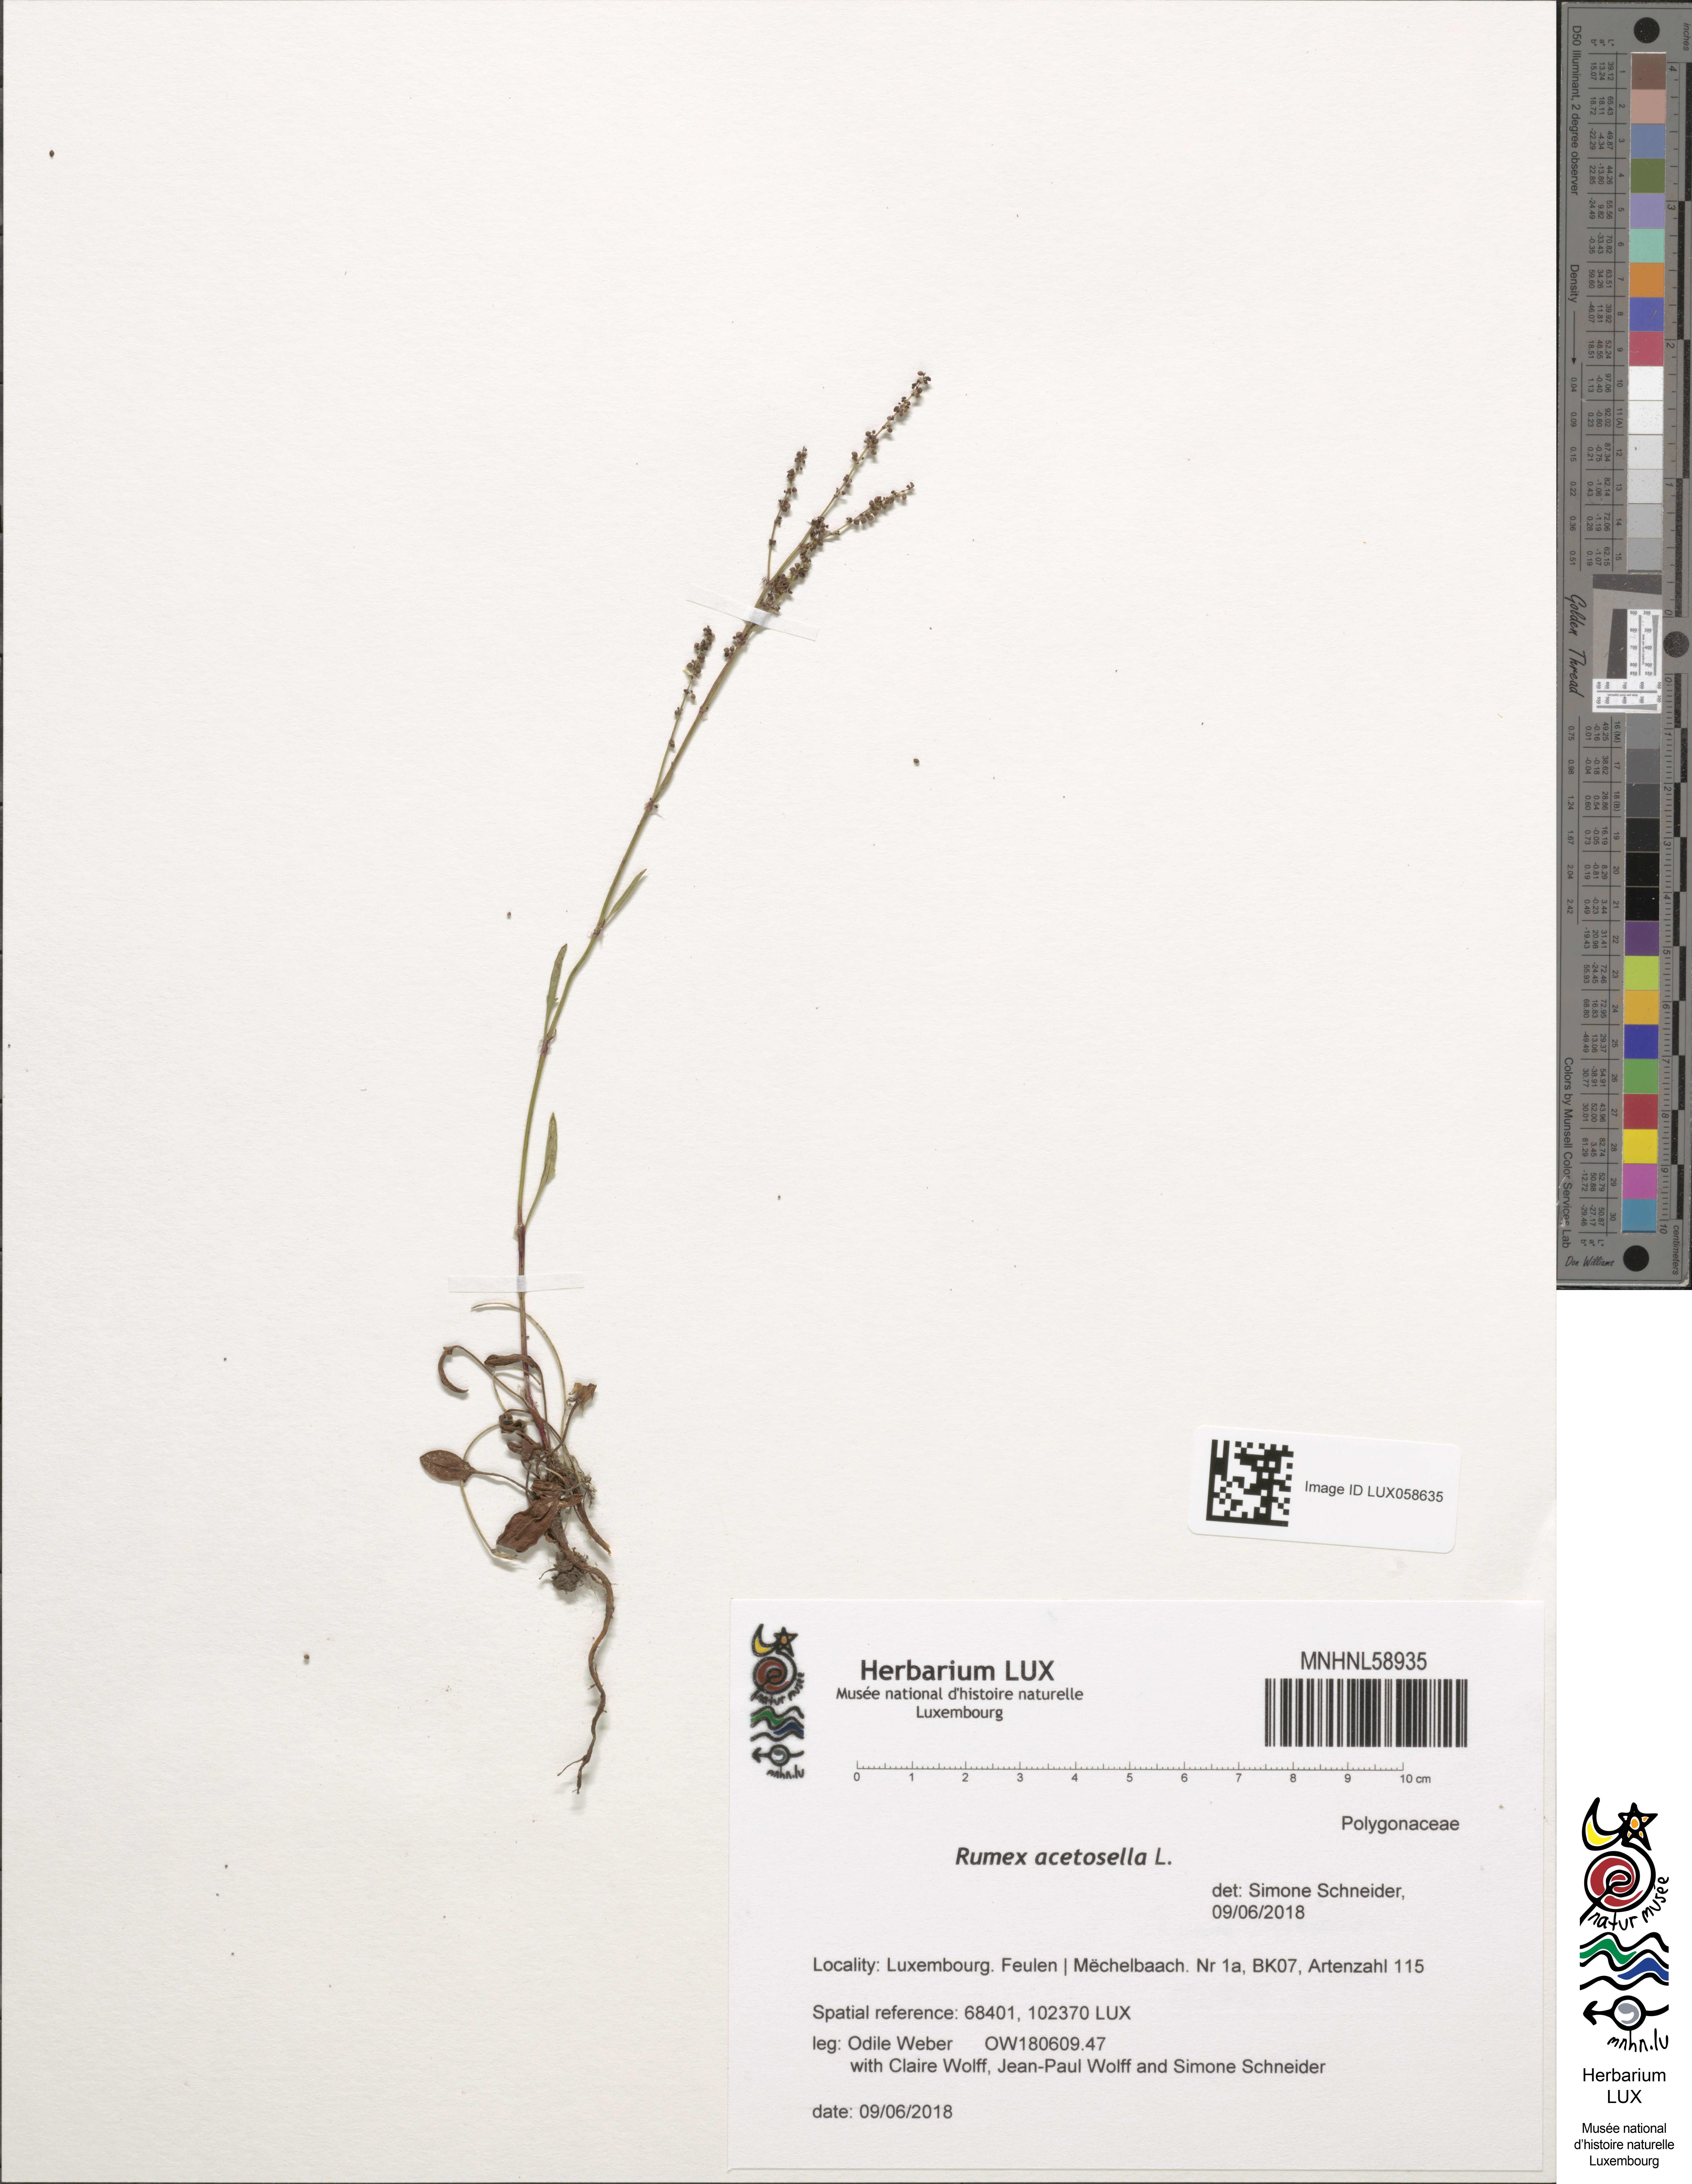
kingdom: Plantae
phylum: Tracheophyta
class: Magnoliopsida
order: Caryophyllales
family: Polygonaceae
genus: Rumex
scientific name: Rumex acetosella
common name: Common sheep sorrel
